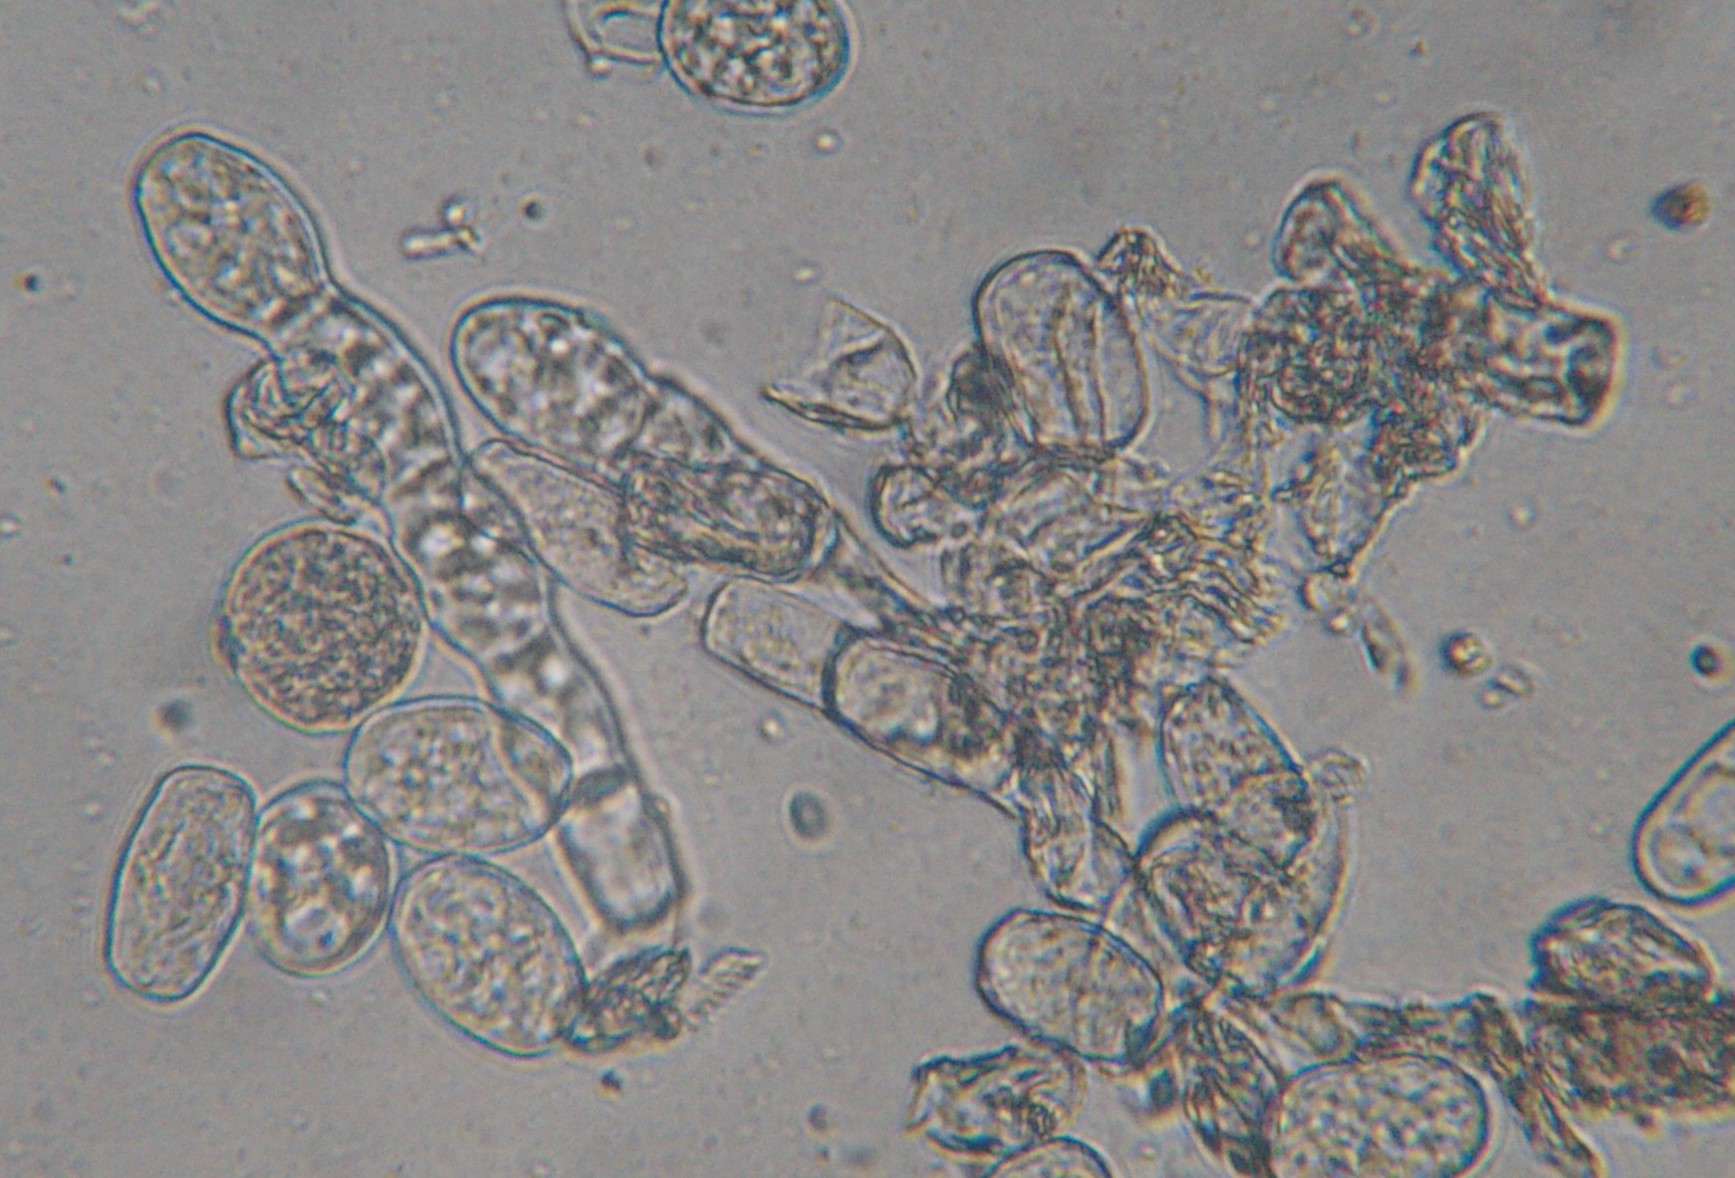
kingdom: Fungi
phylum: Ascomycota
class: Leotiomycetes
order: Helotiales
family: Erysiphaceae
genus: Golovinomyces
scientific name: Golovinomyces cichoracearum
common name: kurvblomst-meldug
